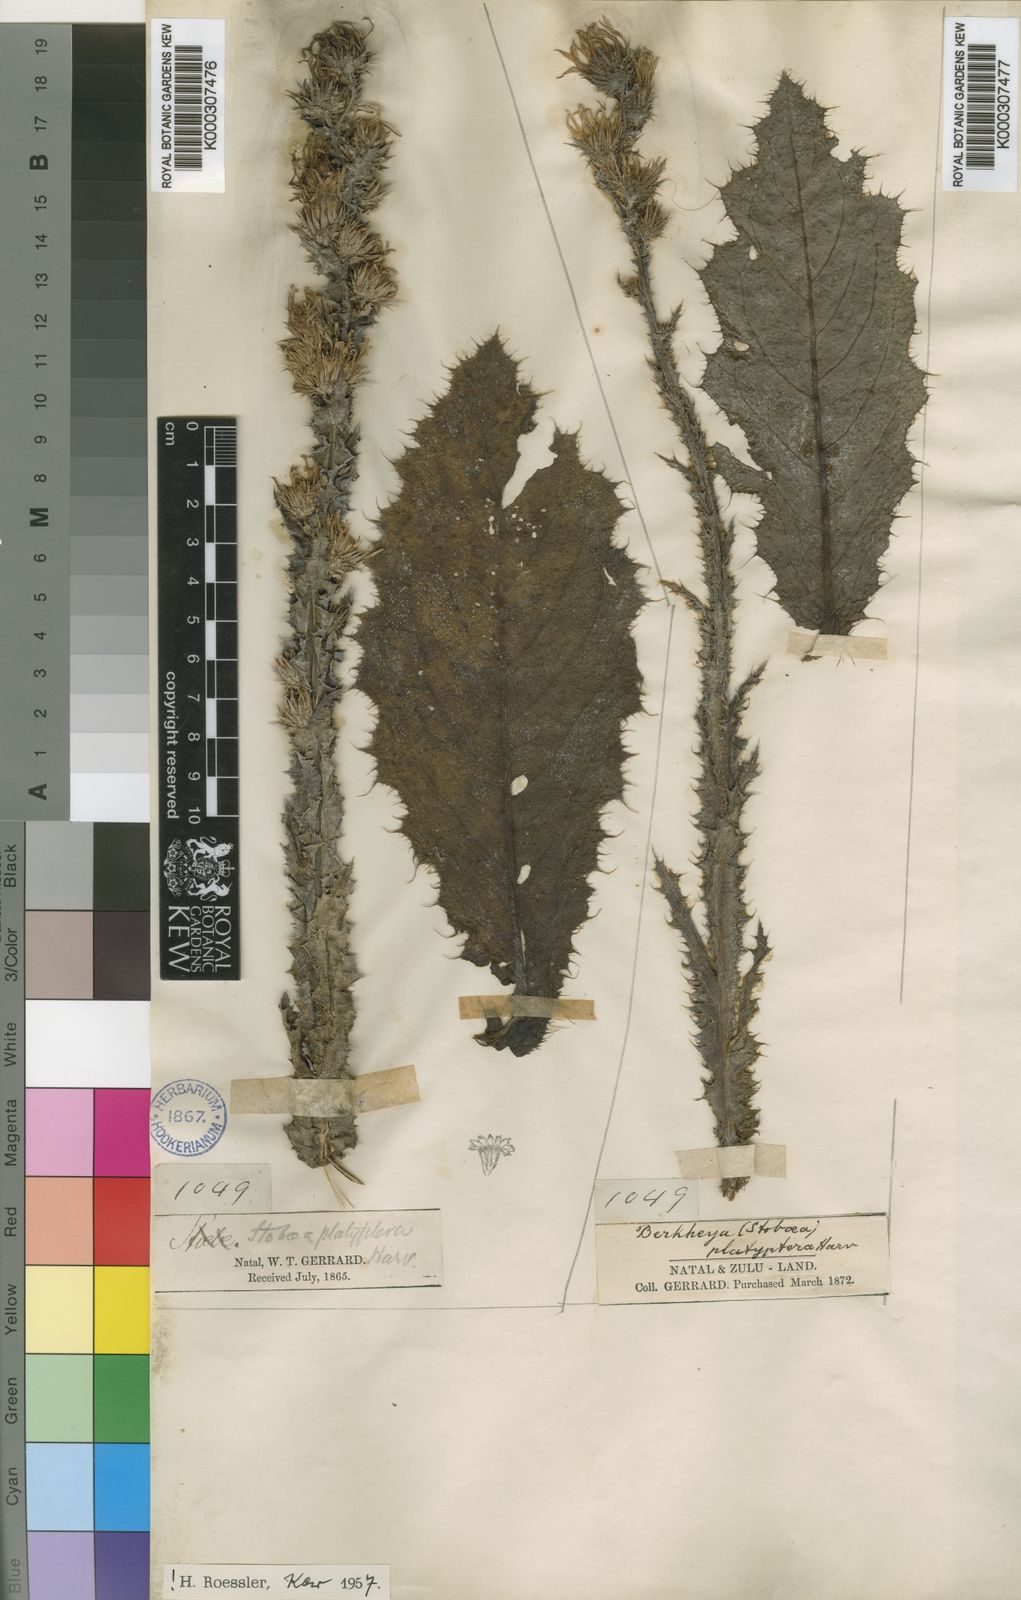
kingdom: Plantae
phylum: Tracheophyta
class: Magnoliopsida
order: Asterales
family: Asteraceae
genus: Berkheya
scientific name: Berkheya rhapontica
